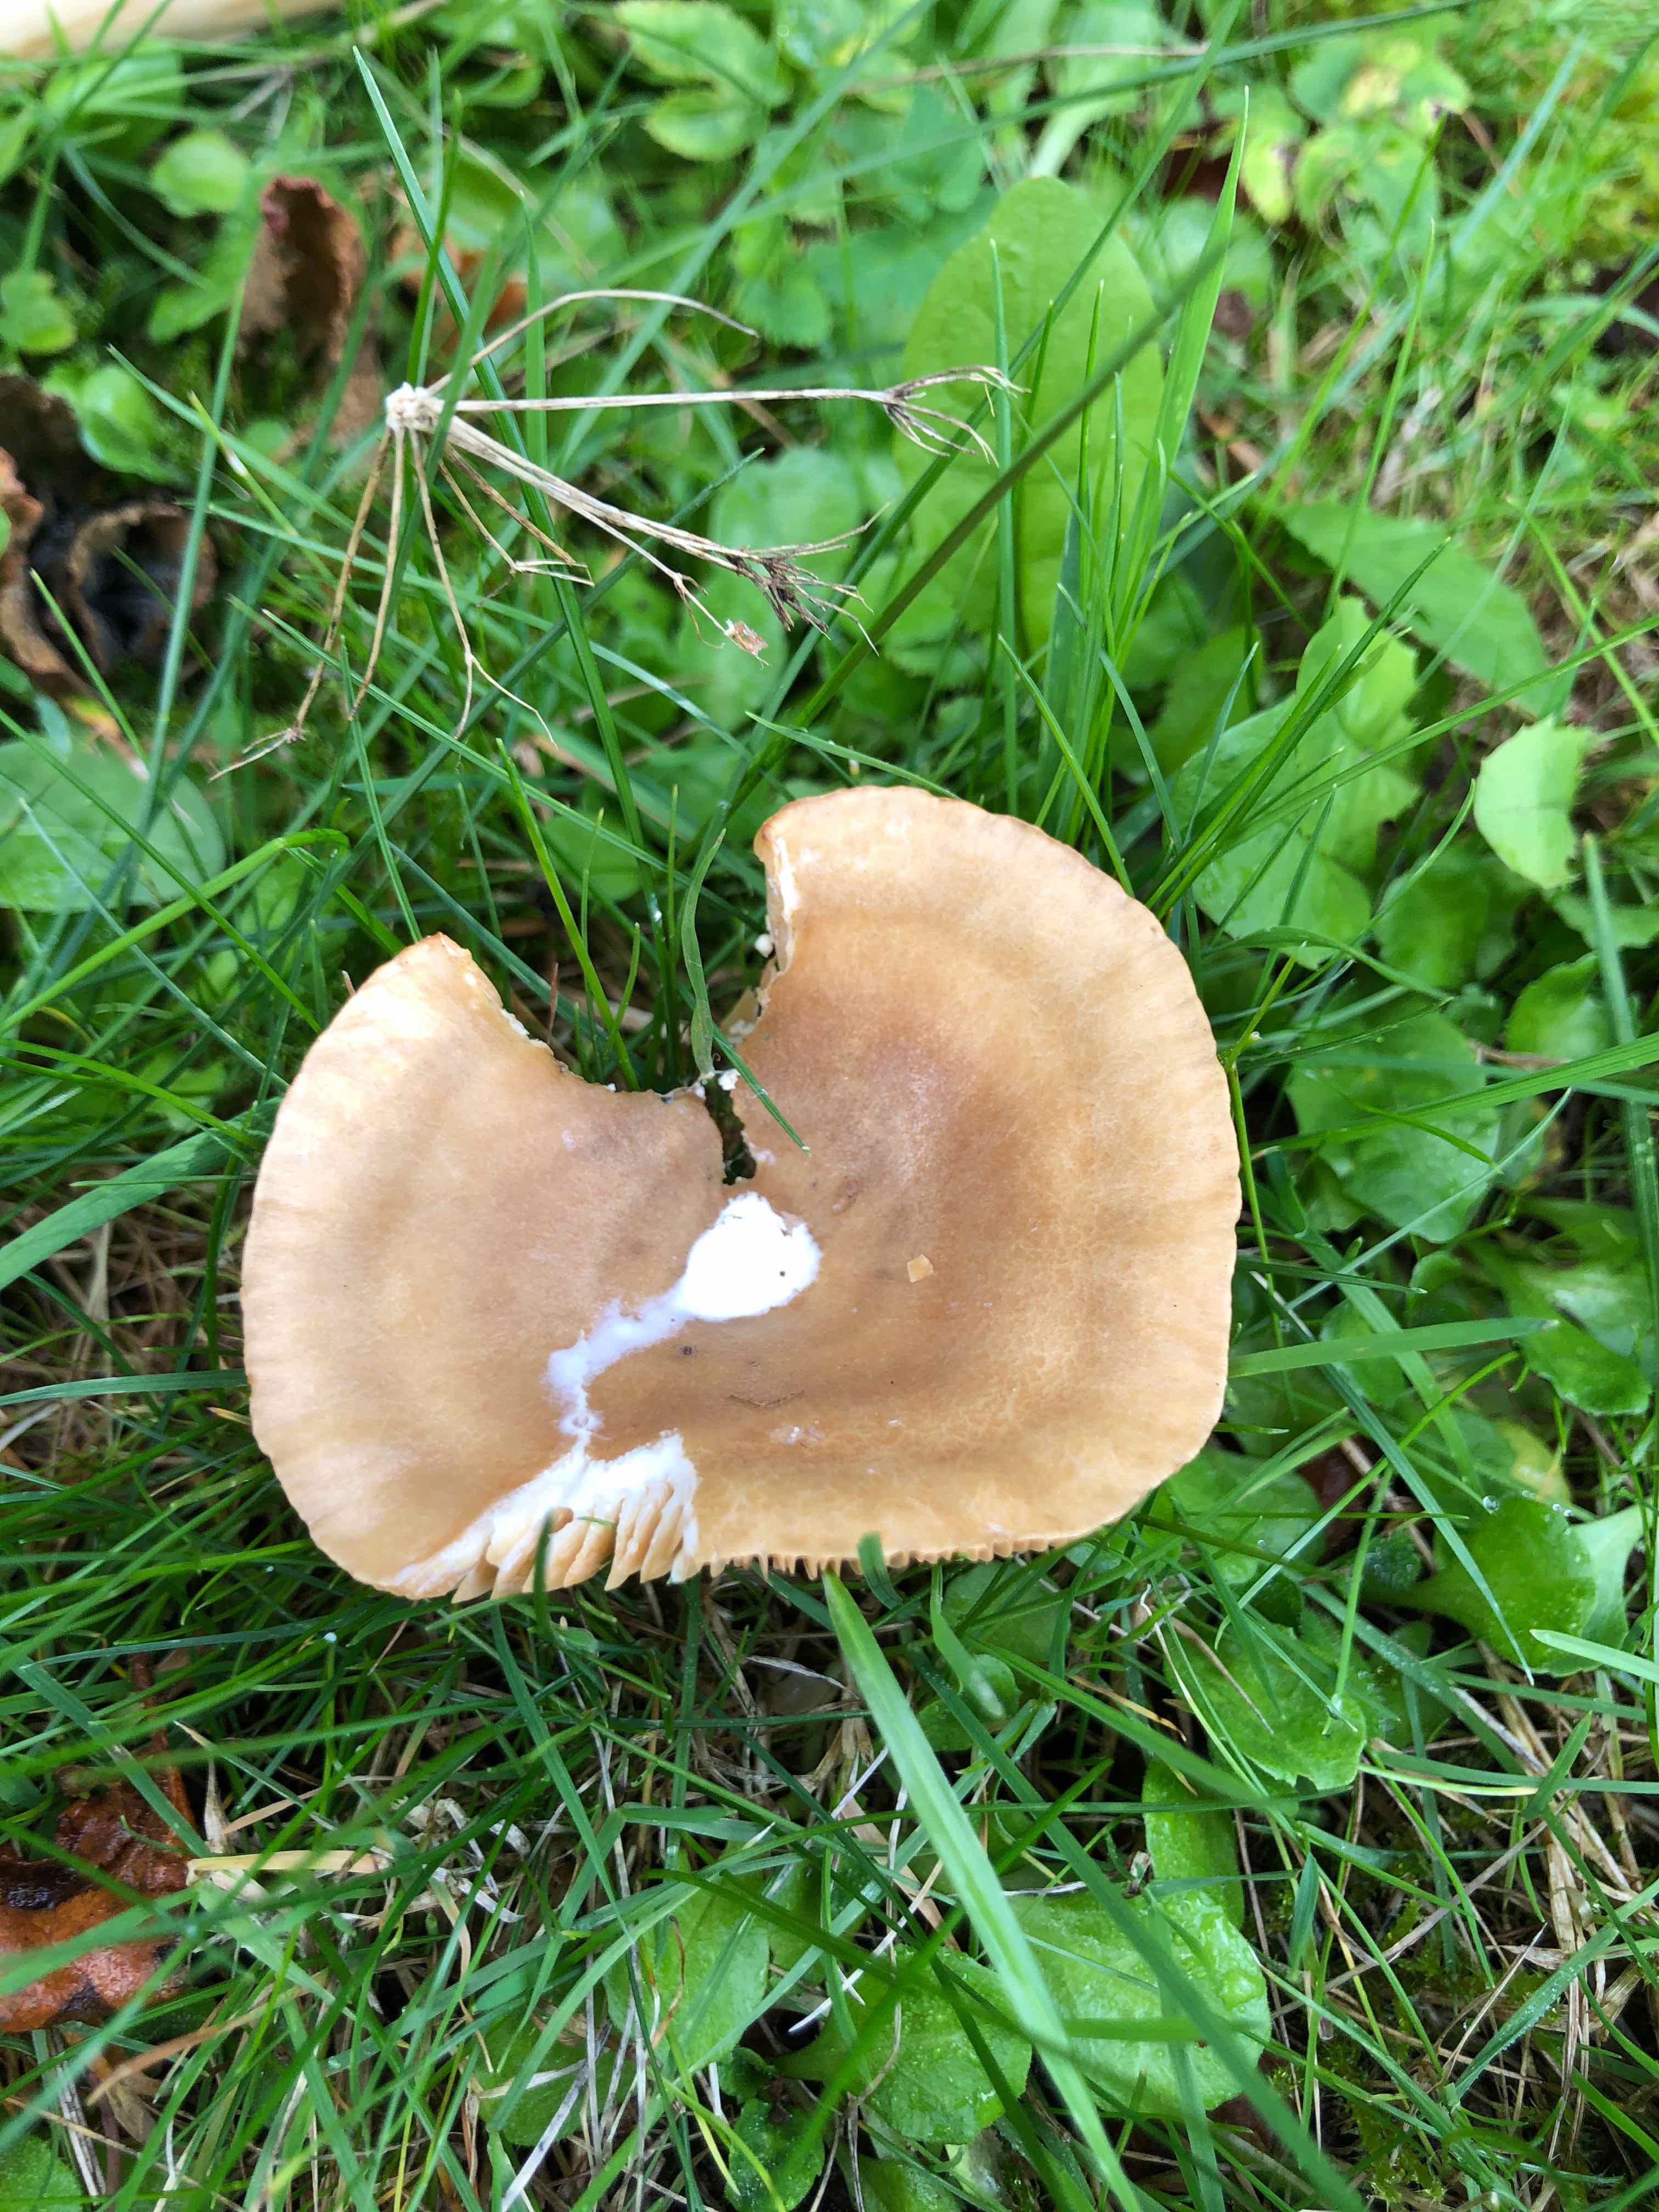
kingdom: Fungi
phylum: Basidiomycota
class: Agaricomycetes
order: Russulales
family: Russulaceae
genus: Lactarius
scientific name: Lactarius
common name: mælkehat
